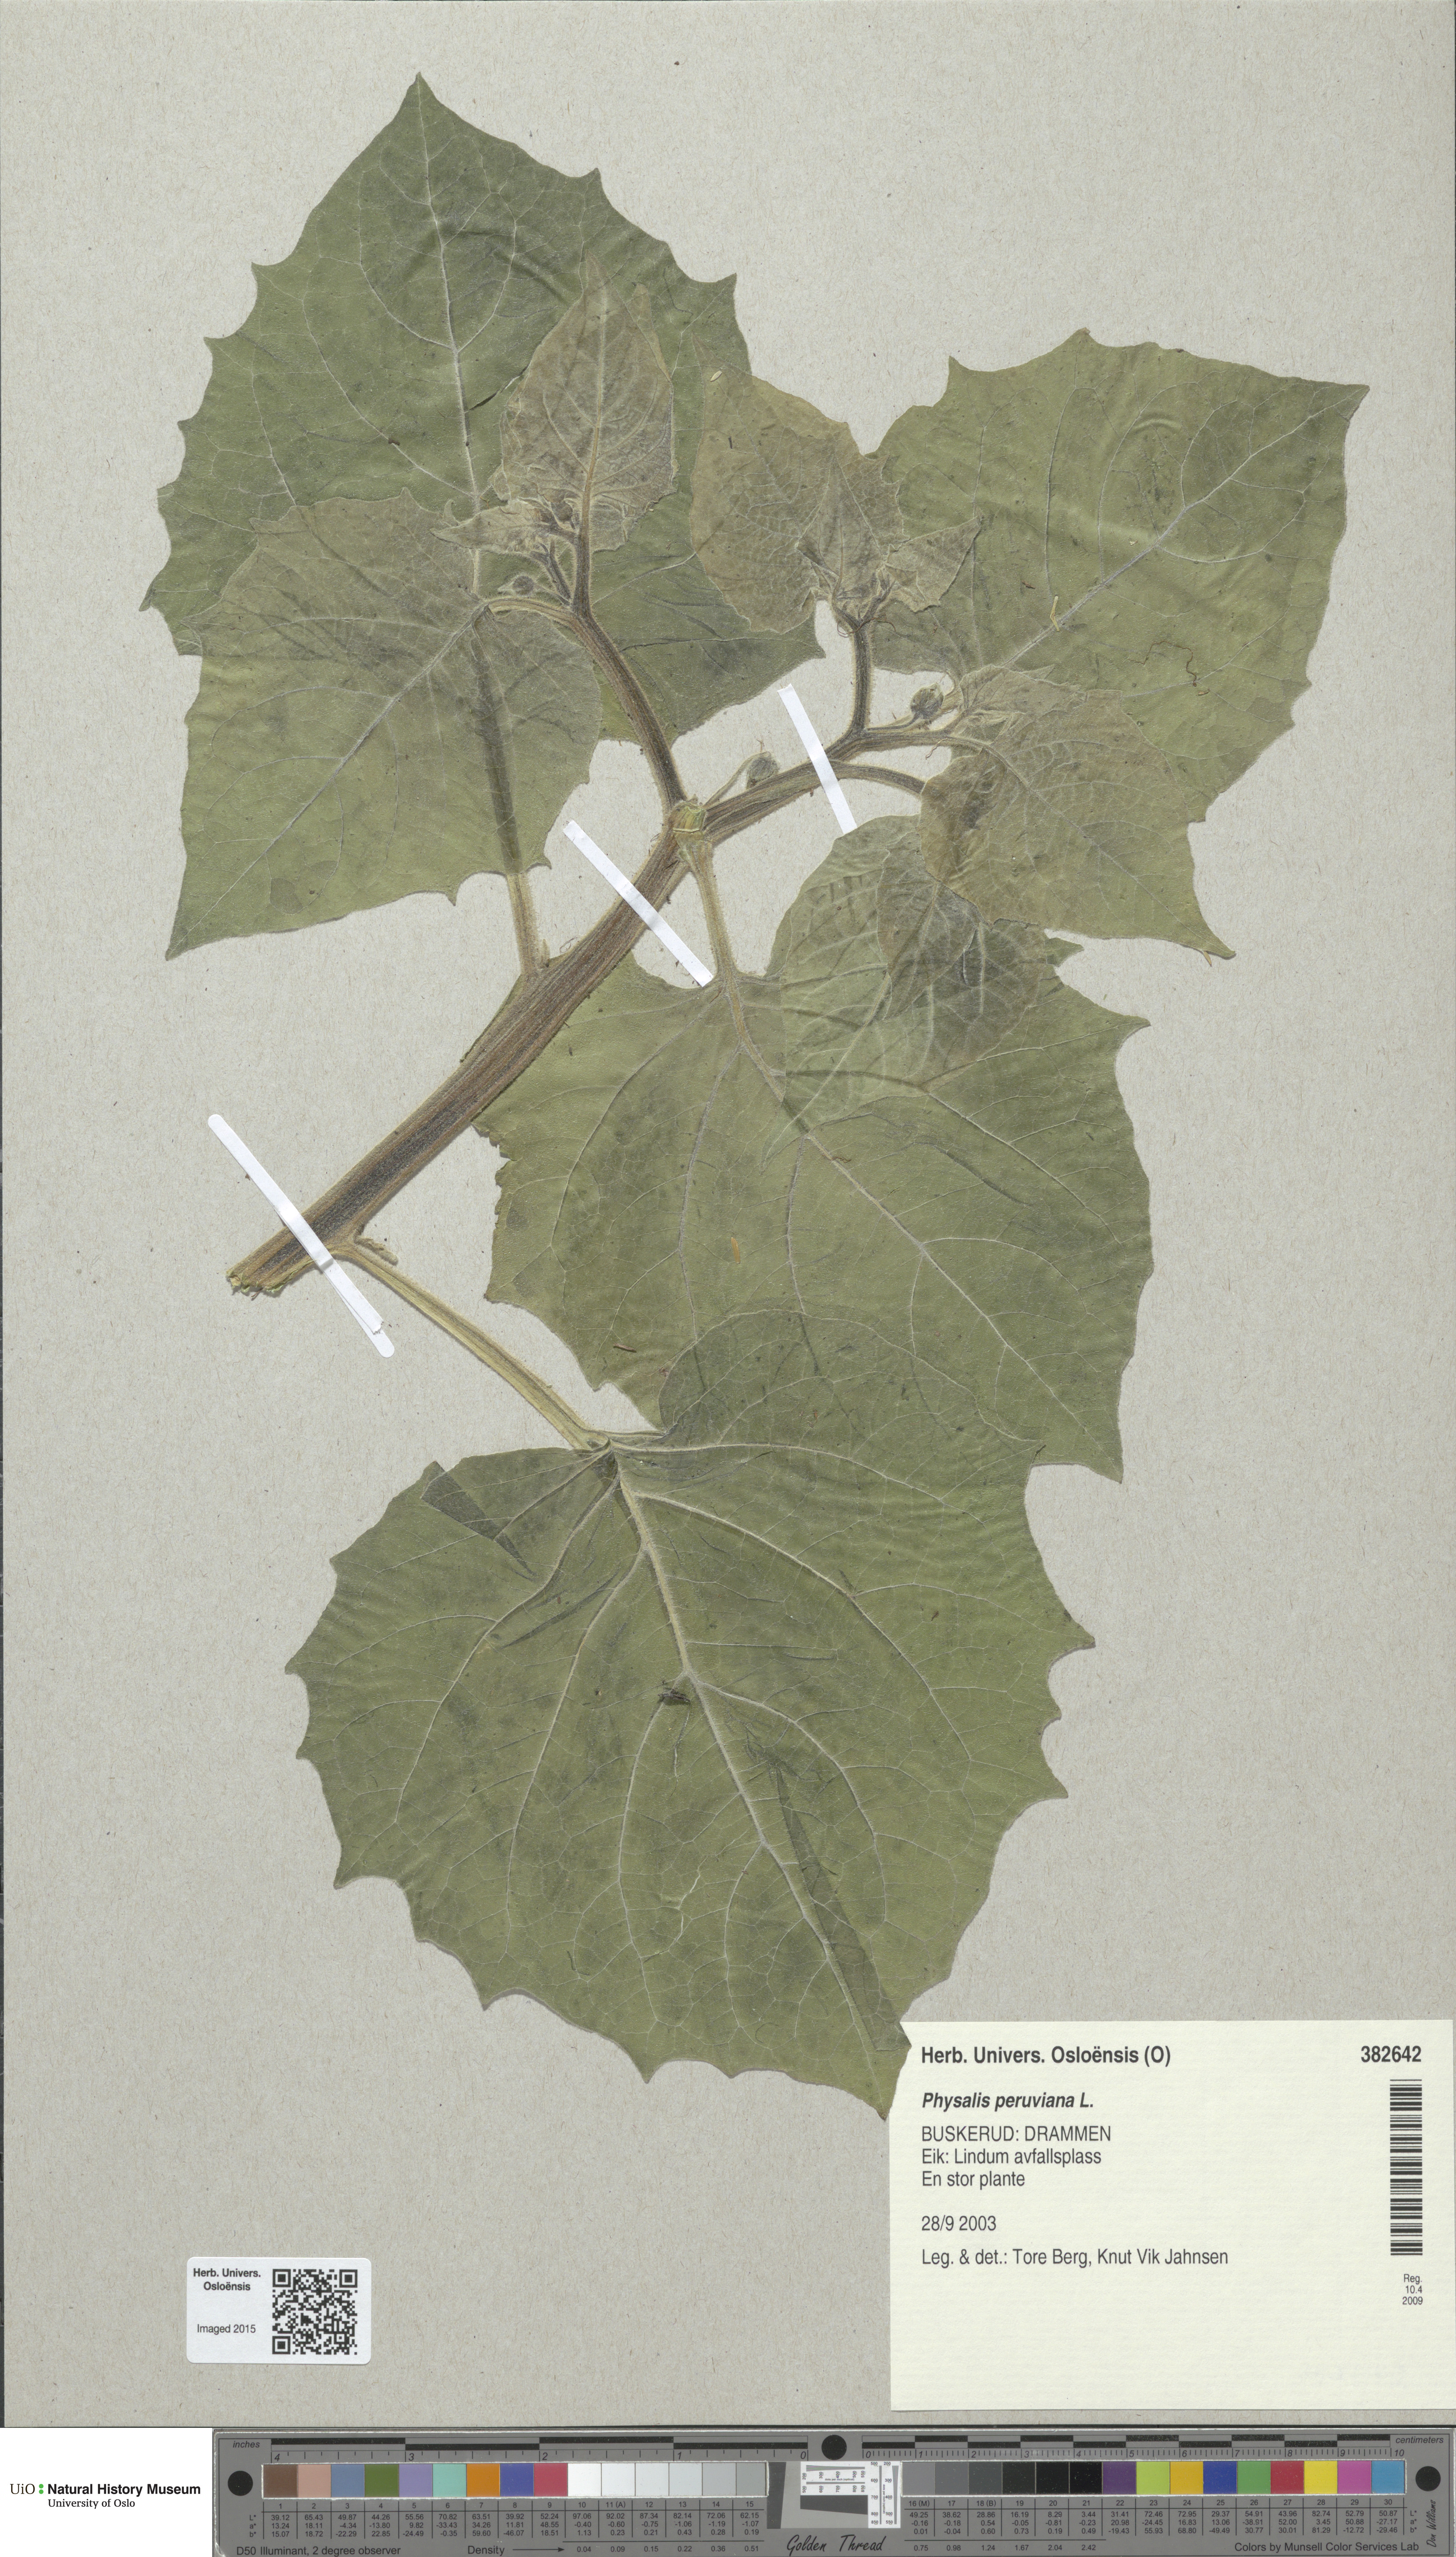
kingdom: Plantae
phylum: Tracheophyta
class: Magnoliopsida
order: Solanales
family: Solanaceae
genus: Physalis
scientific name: Physalis peruviana
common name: Cape-gooseberry
